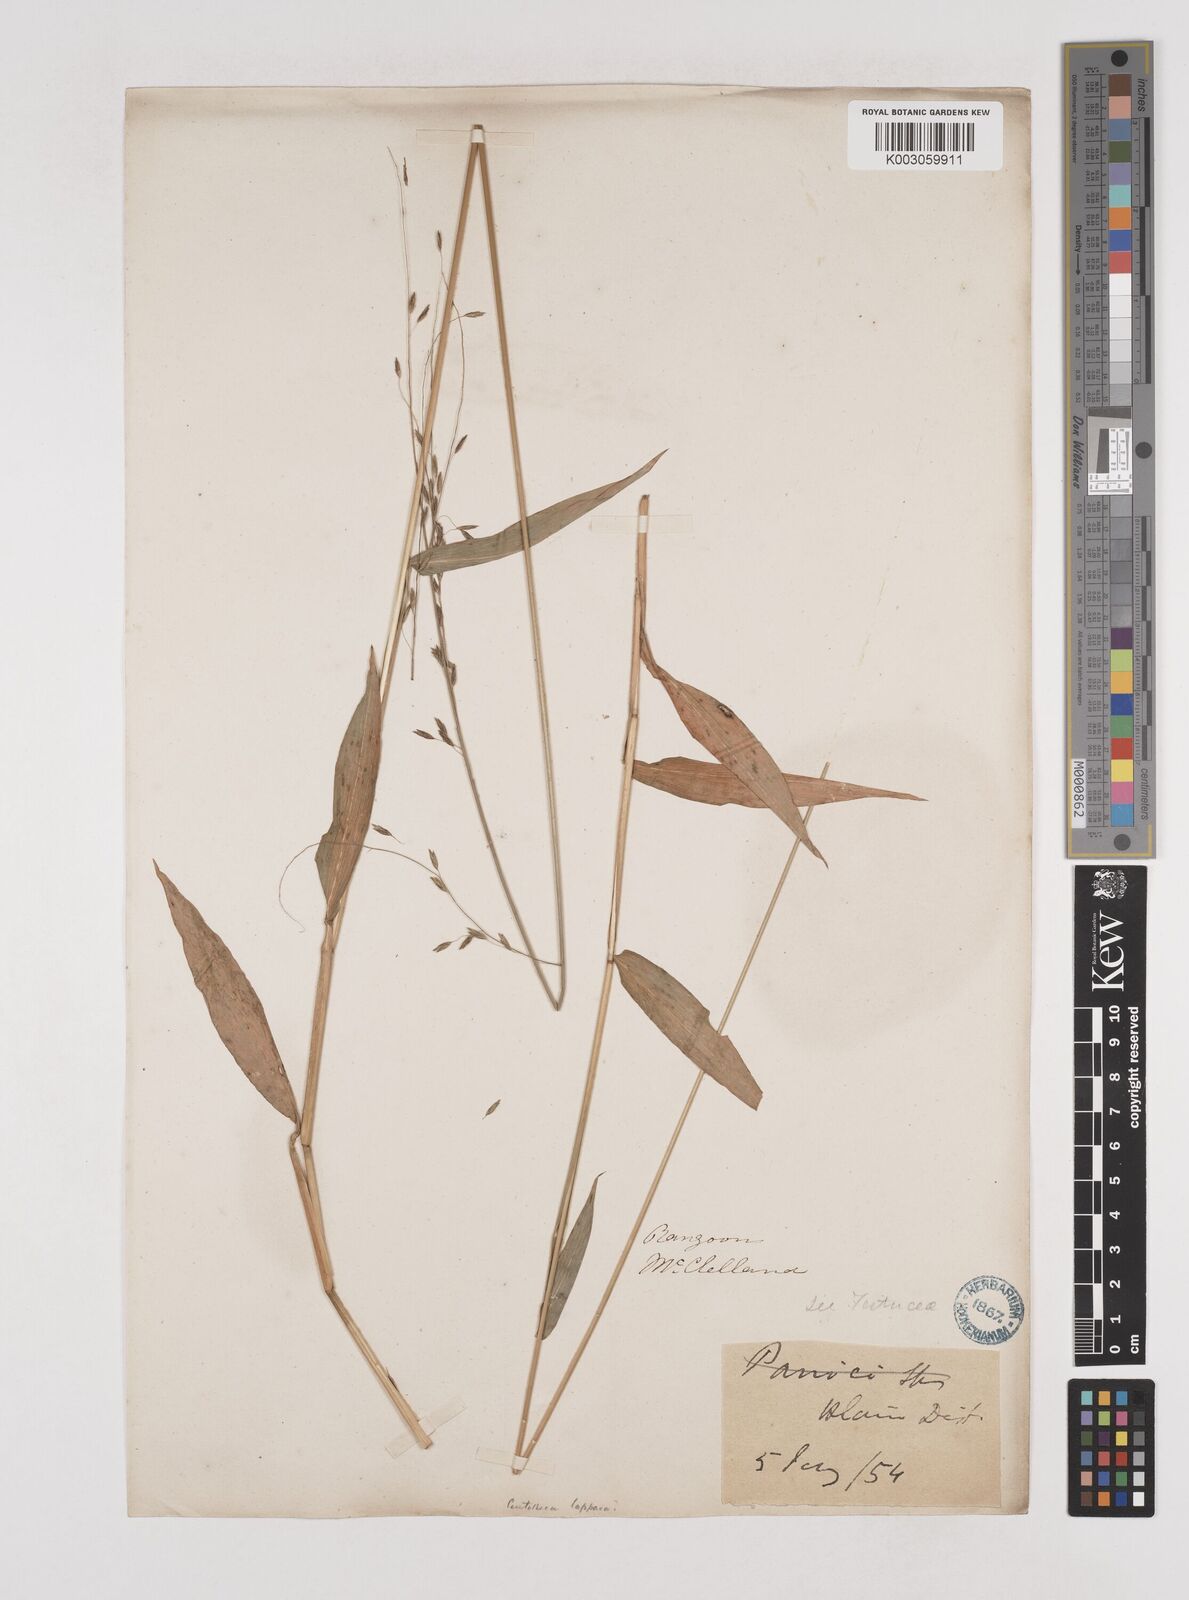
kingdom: Plantae
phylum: Tracheophyta
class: Liliopsida
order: Poales
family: Poaceae
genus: Centotheca
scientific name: Centotheca lappacea
